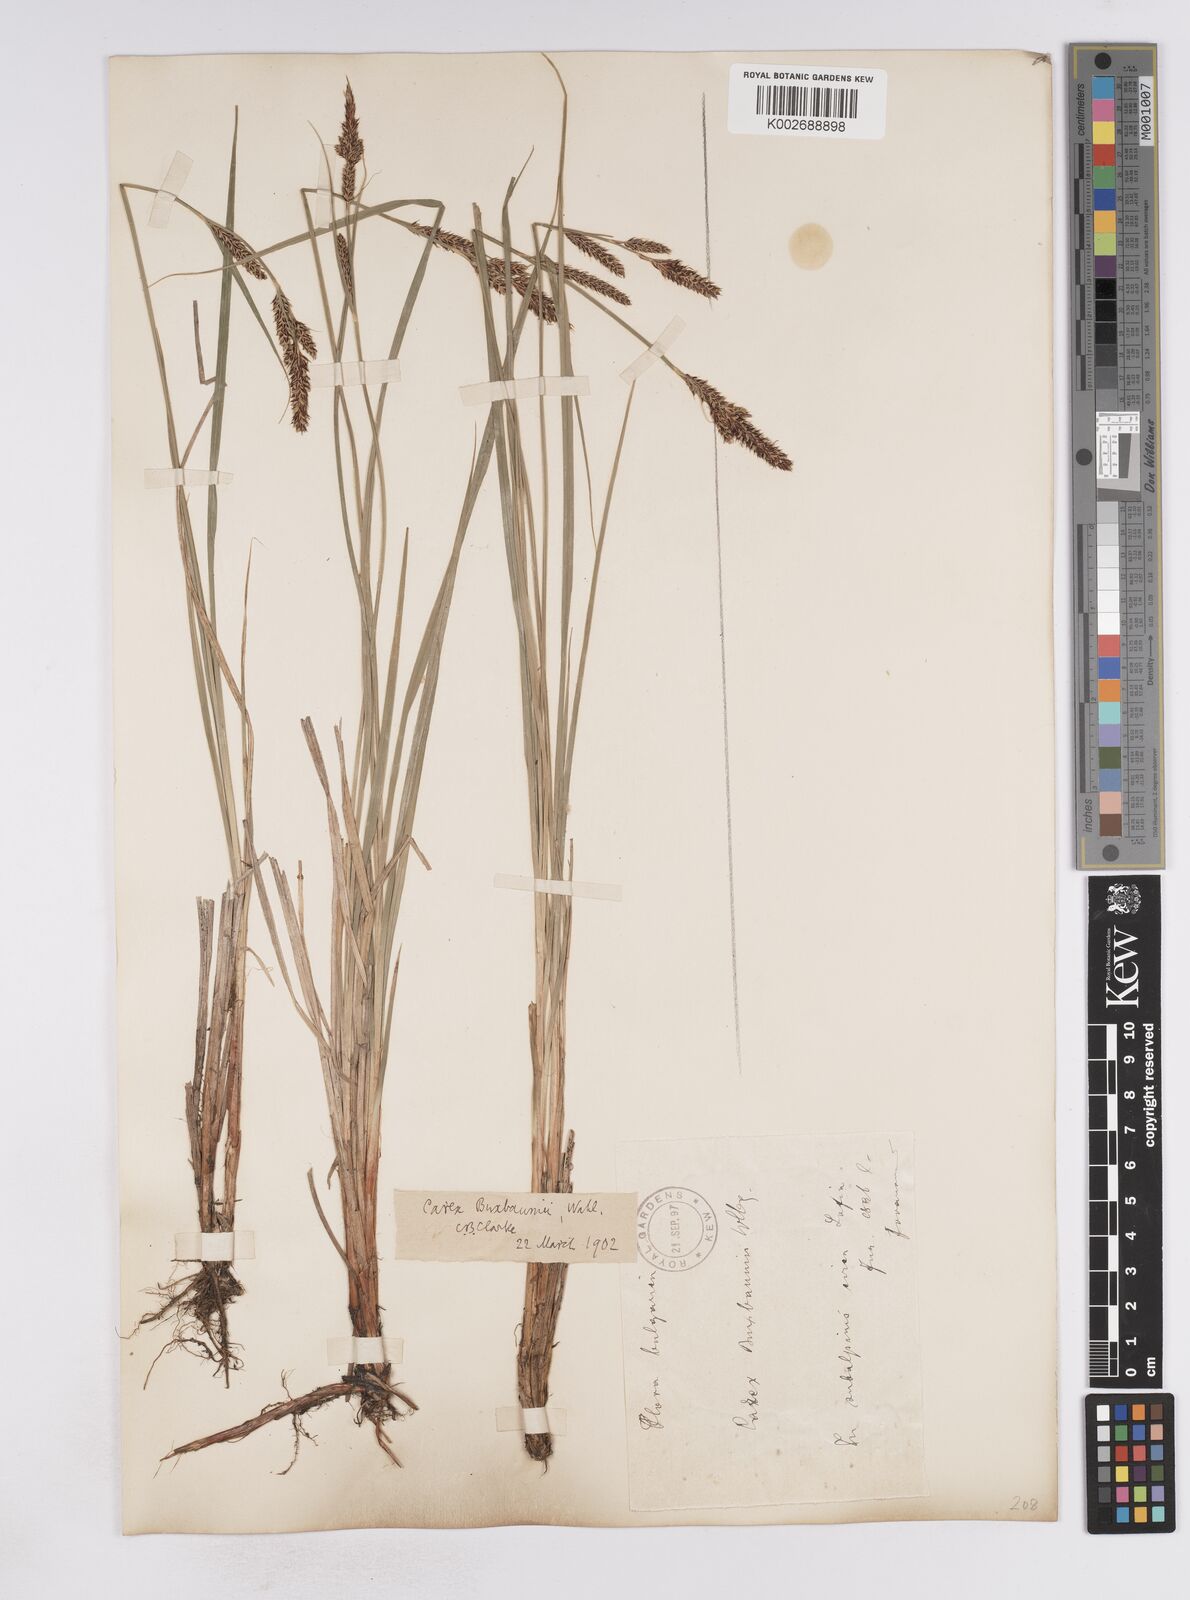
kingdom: Plantae
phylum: Tracheophyta
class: Liliopsida
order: Poales
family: Cyperaceae
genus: Carex
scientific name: Carex buxbaumii
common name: Club sedge
